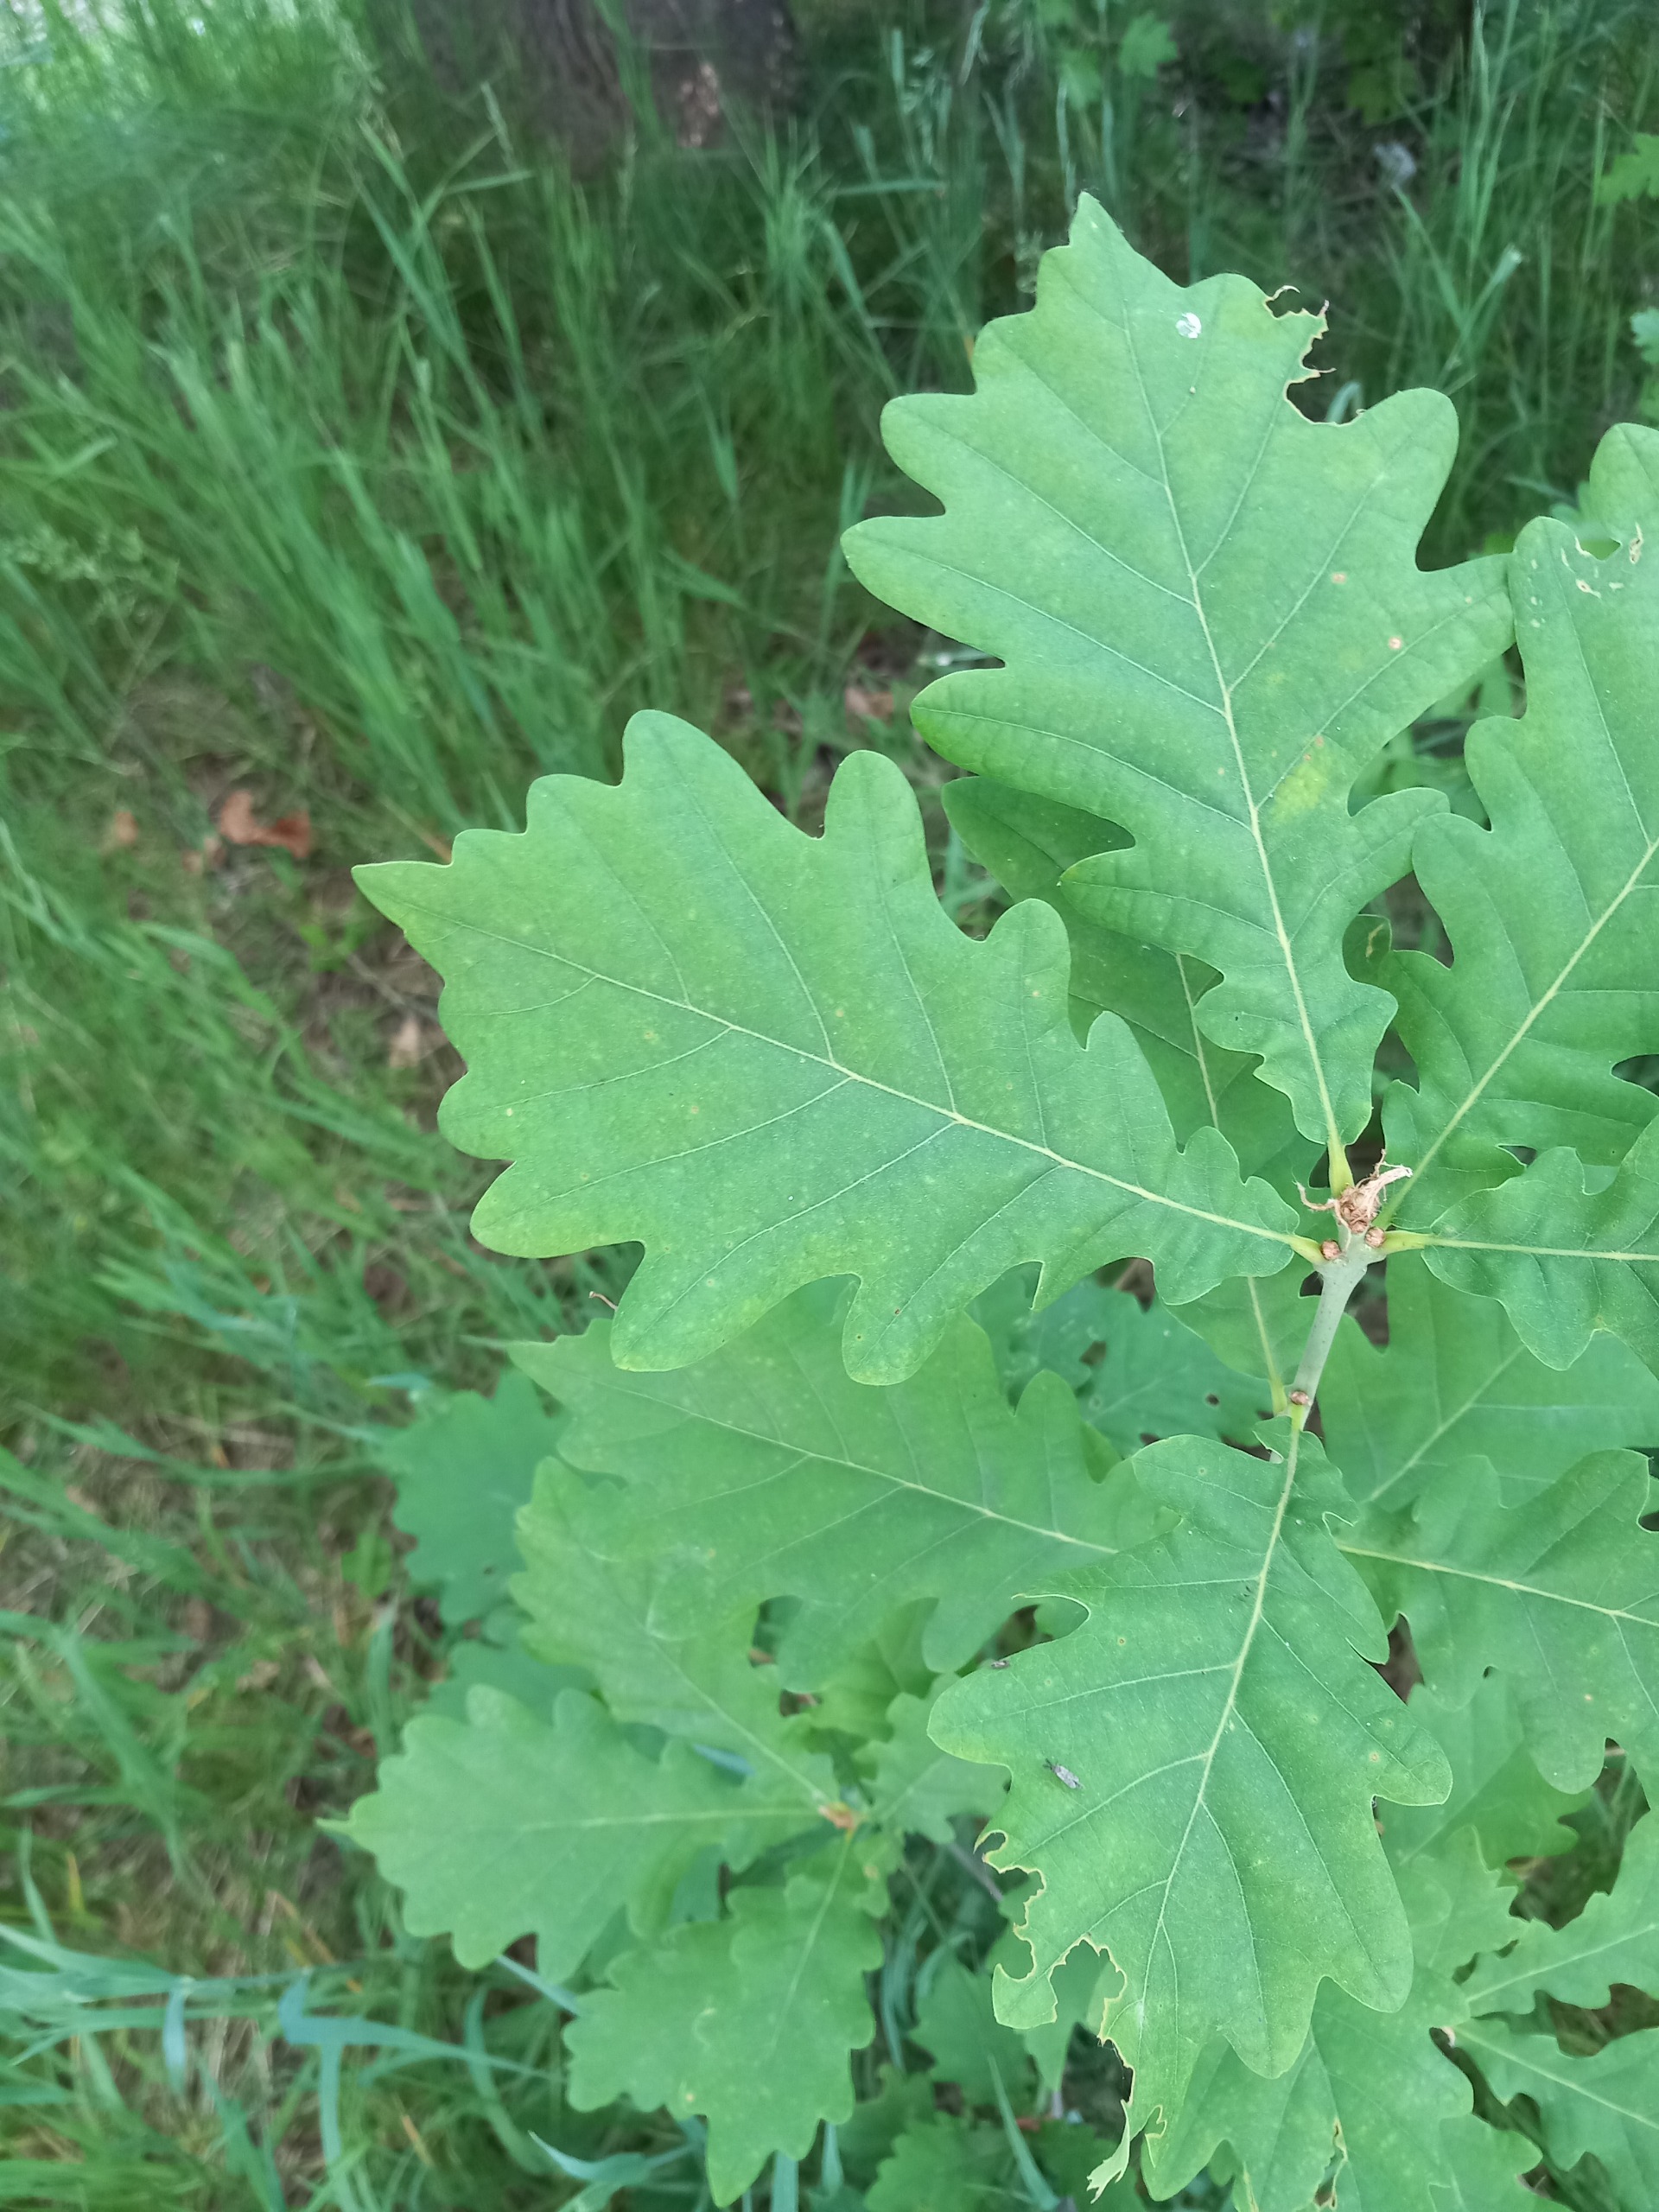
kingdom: Plantae
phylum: Tracheophyta
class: Magnoliopsida
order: Fagales
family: Fagaceae
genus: Quercus
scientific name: Quercus robur
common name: Stilk-eg/almindelig eg
